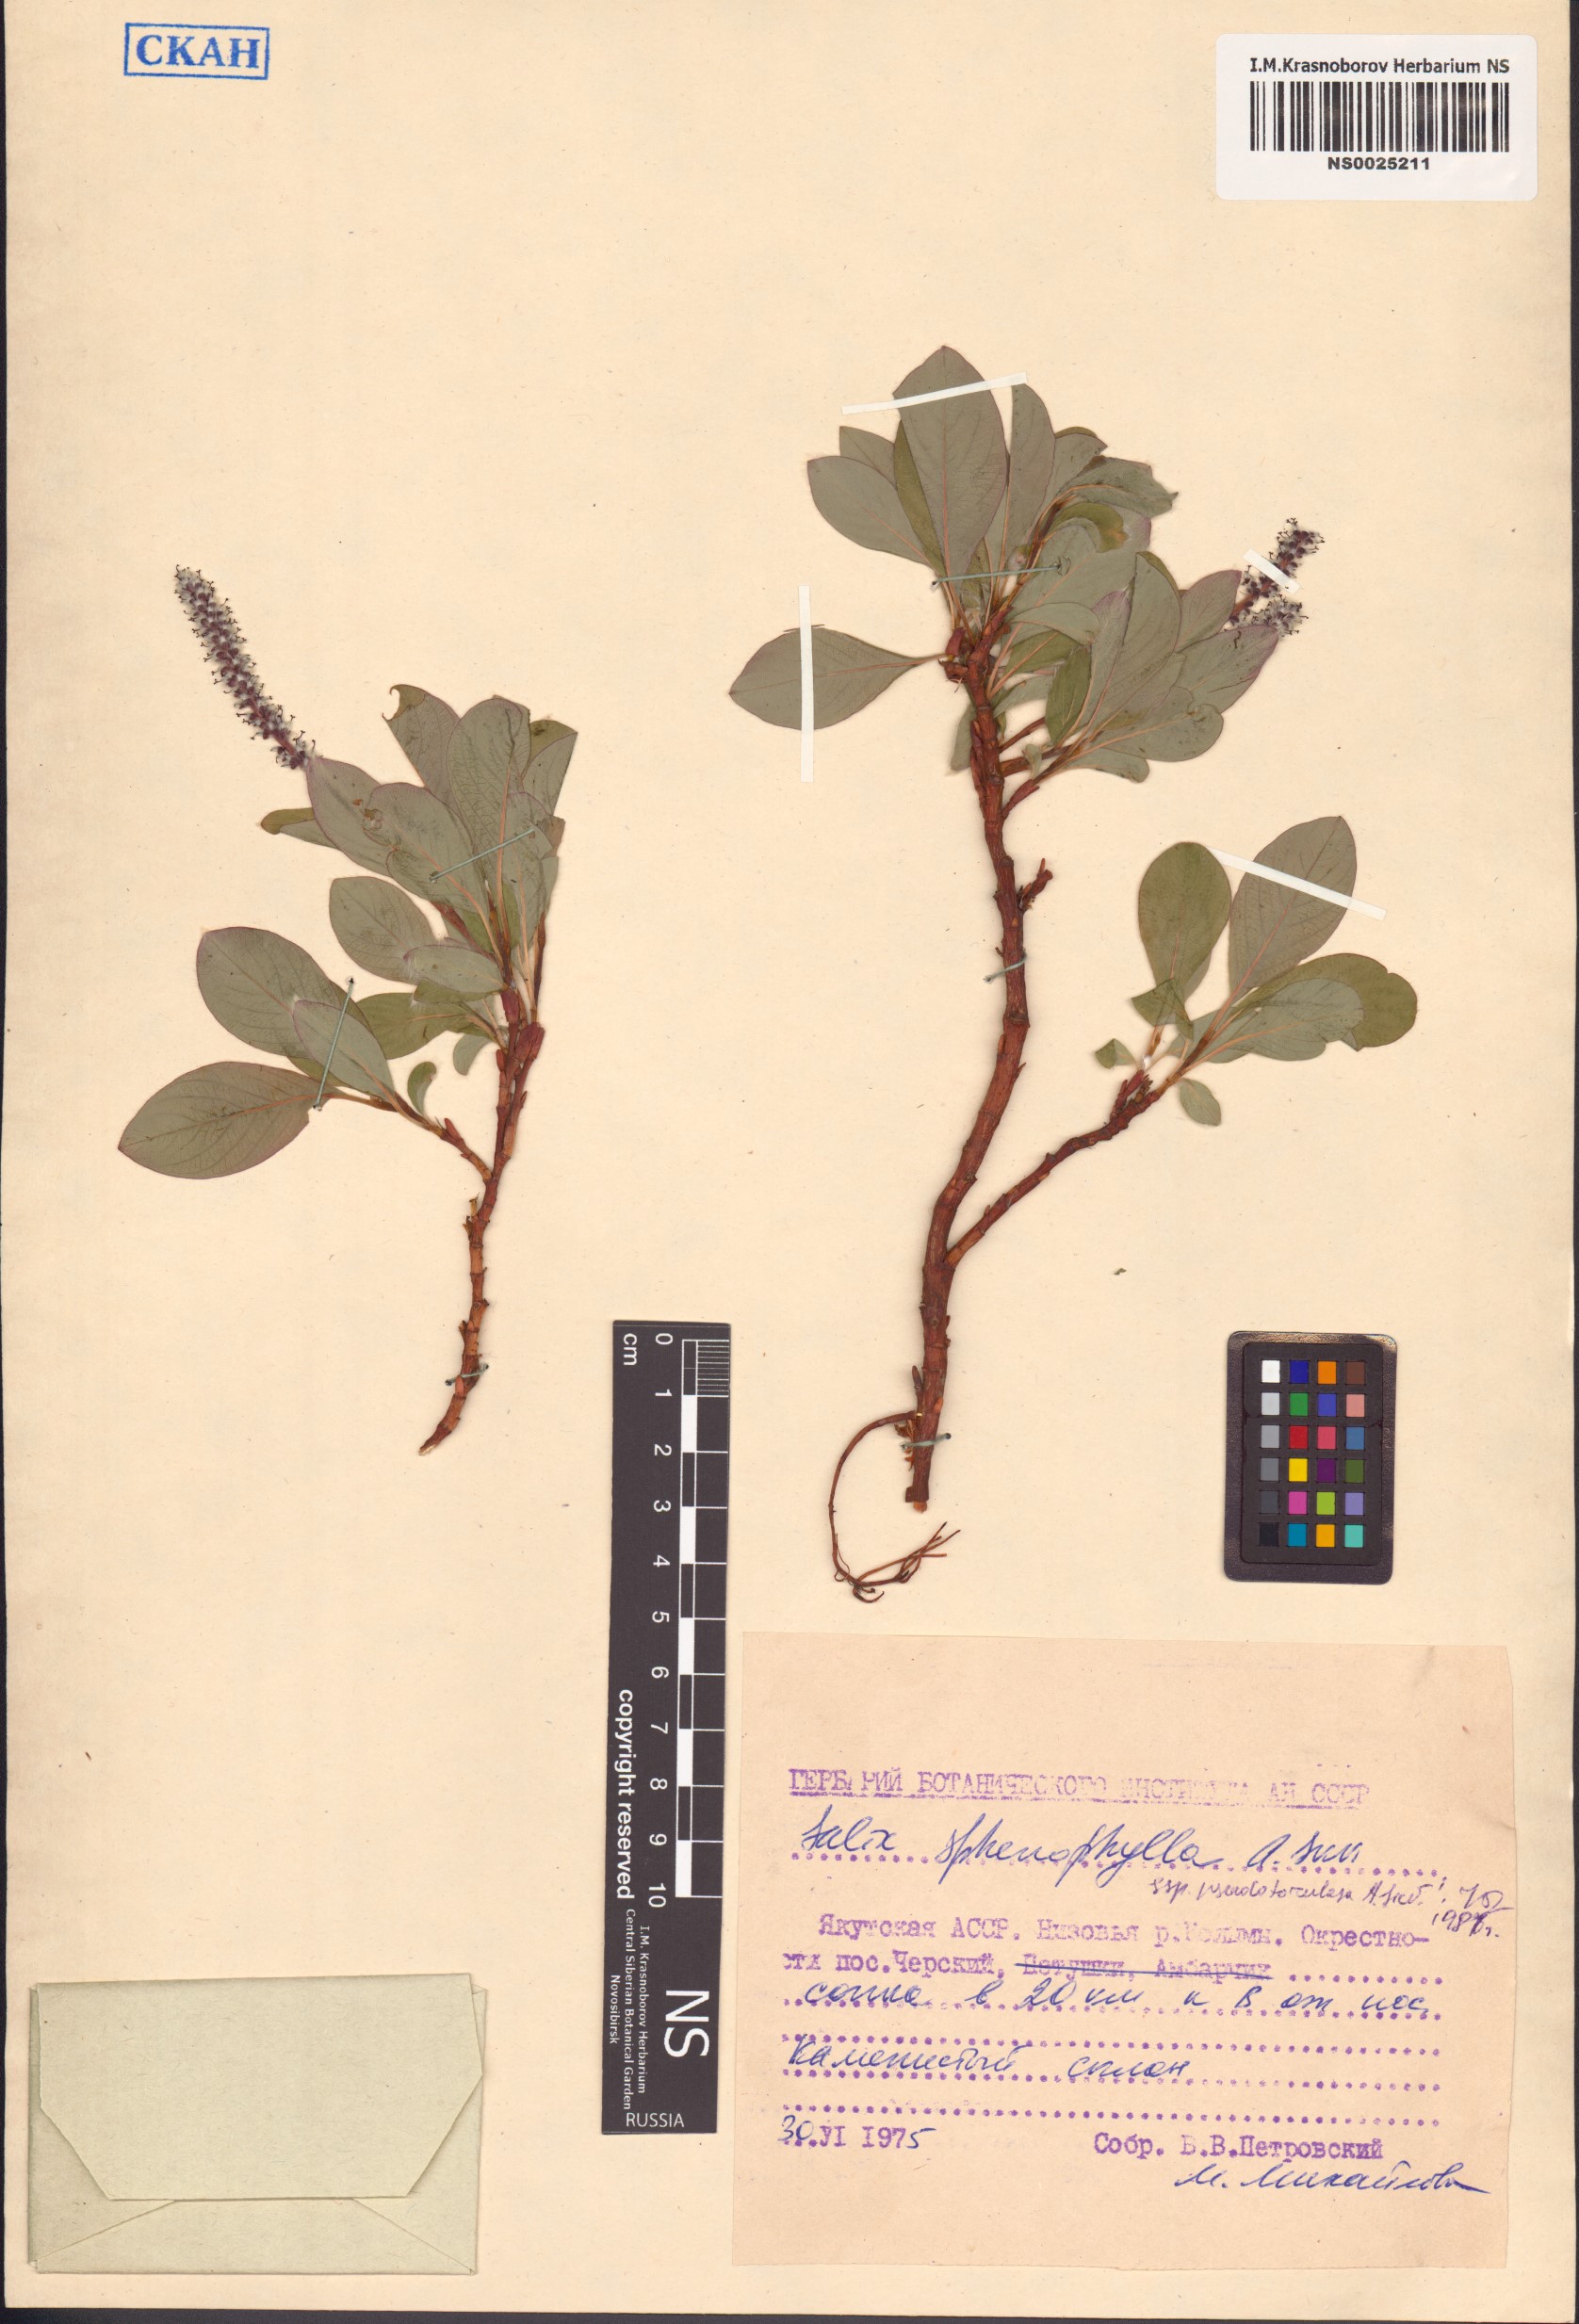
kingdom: Plantae
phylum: Tracheophyta
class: Magnoliopsida
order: Malpighiales
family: Salicaceae
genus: Salix
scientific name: Salix sphenophylla
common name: Wedge-leaved willow
